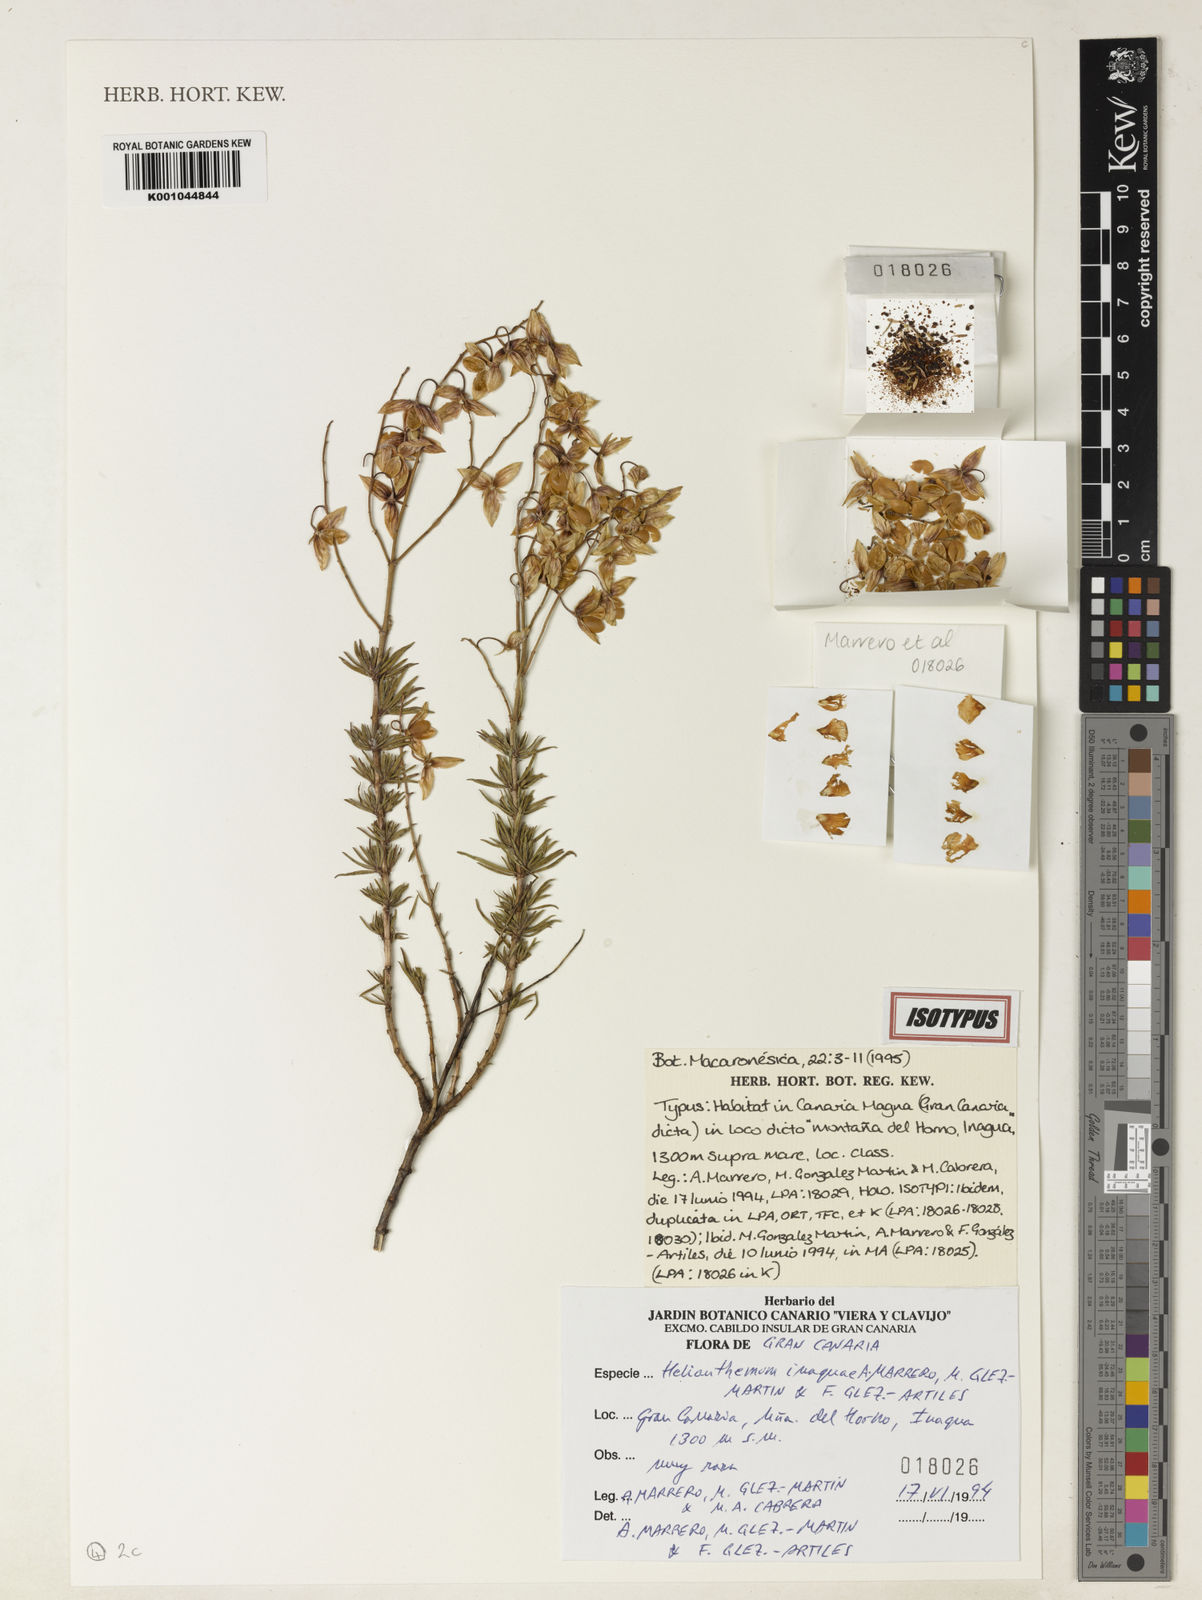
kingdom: Plantae
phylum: Tracheophyta
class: Magnoliopsida
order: Malvales
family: Cistaceae
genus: Helianthemum
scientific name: Helianthemum
